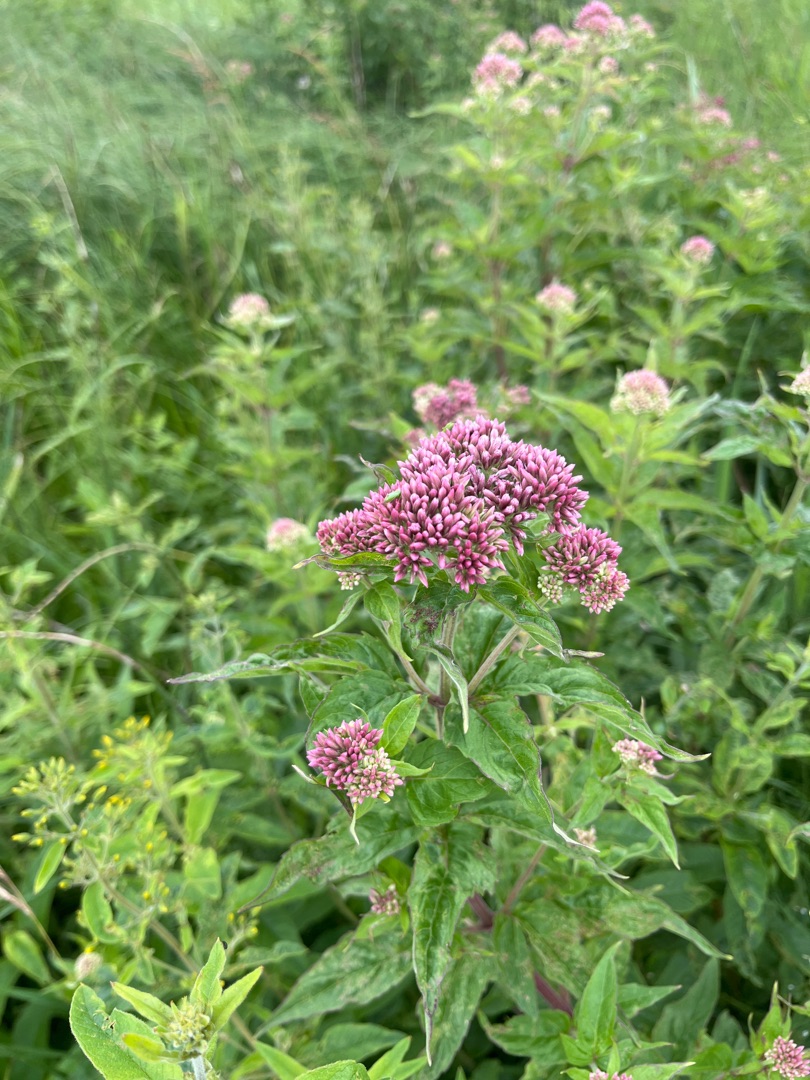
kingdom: Plantae
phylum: Tracheophyta
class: Magnoliopsida
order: Asterales
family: Asteraceae
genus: Eupatorium
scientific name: Eupatorium cannabinum
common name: Hjortetrøst
